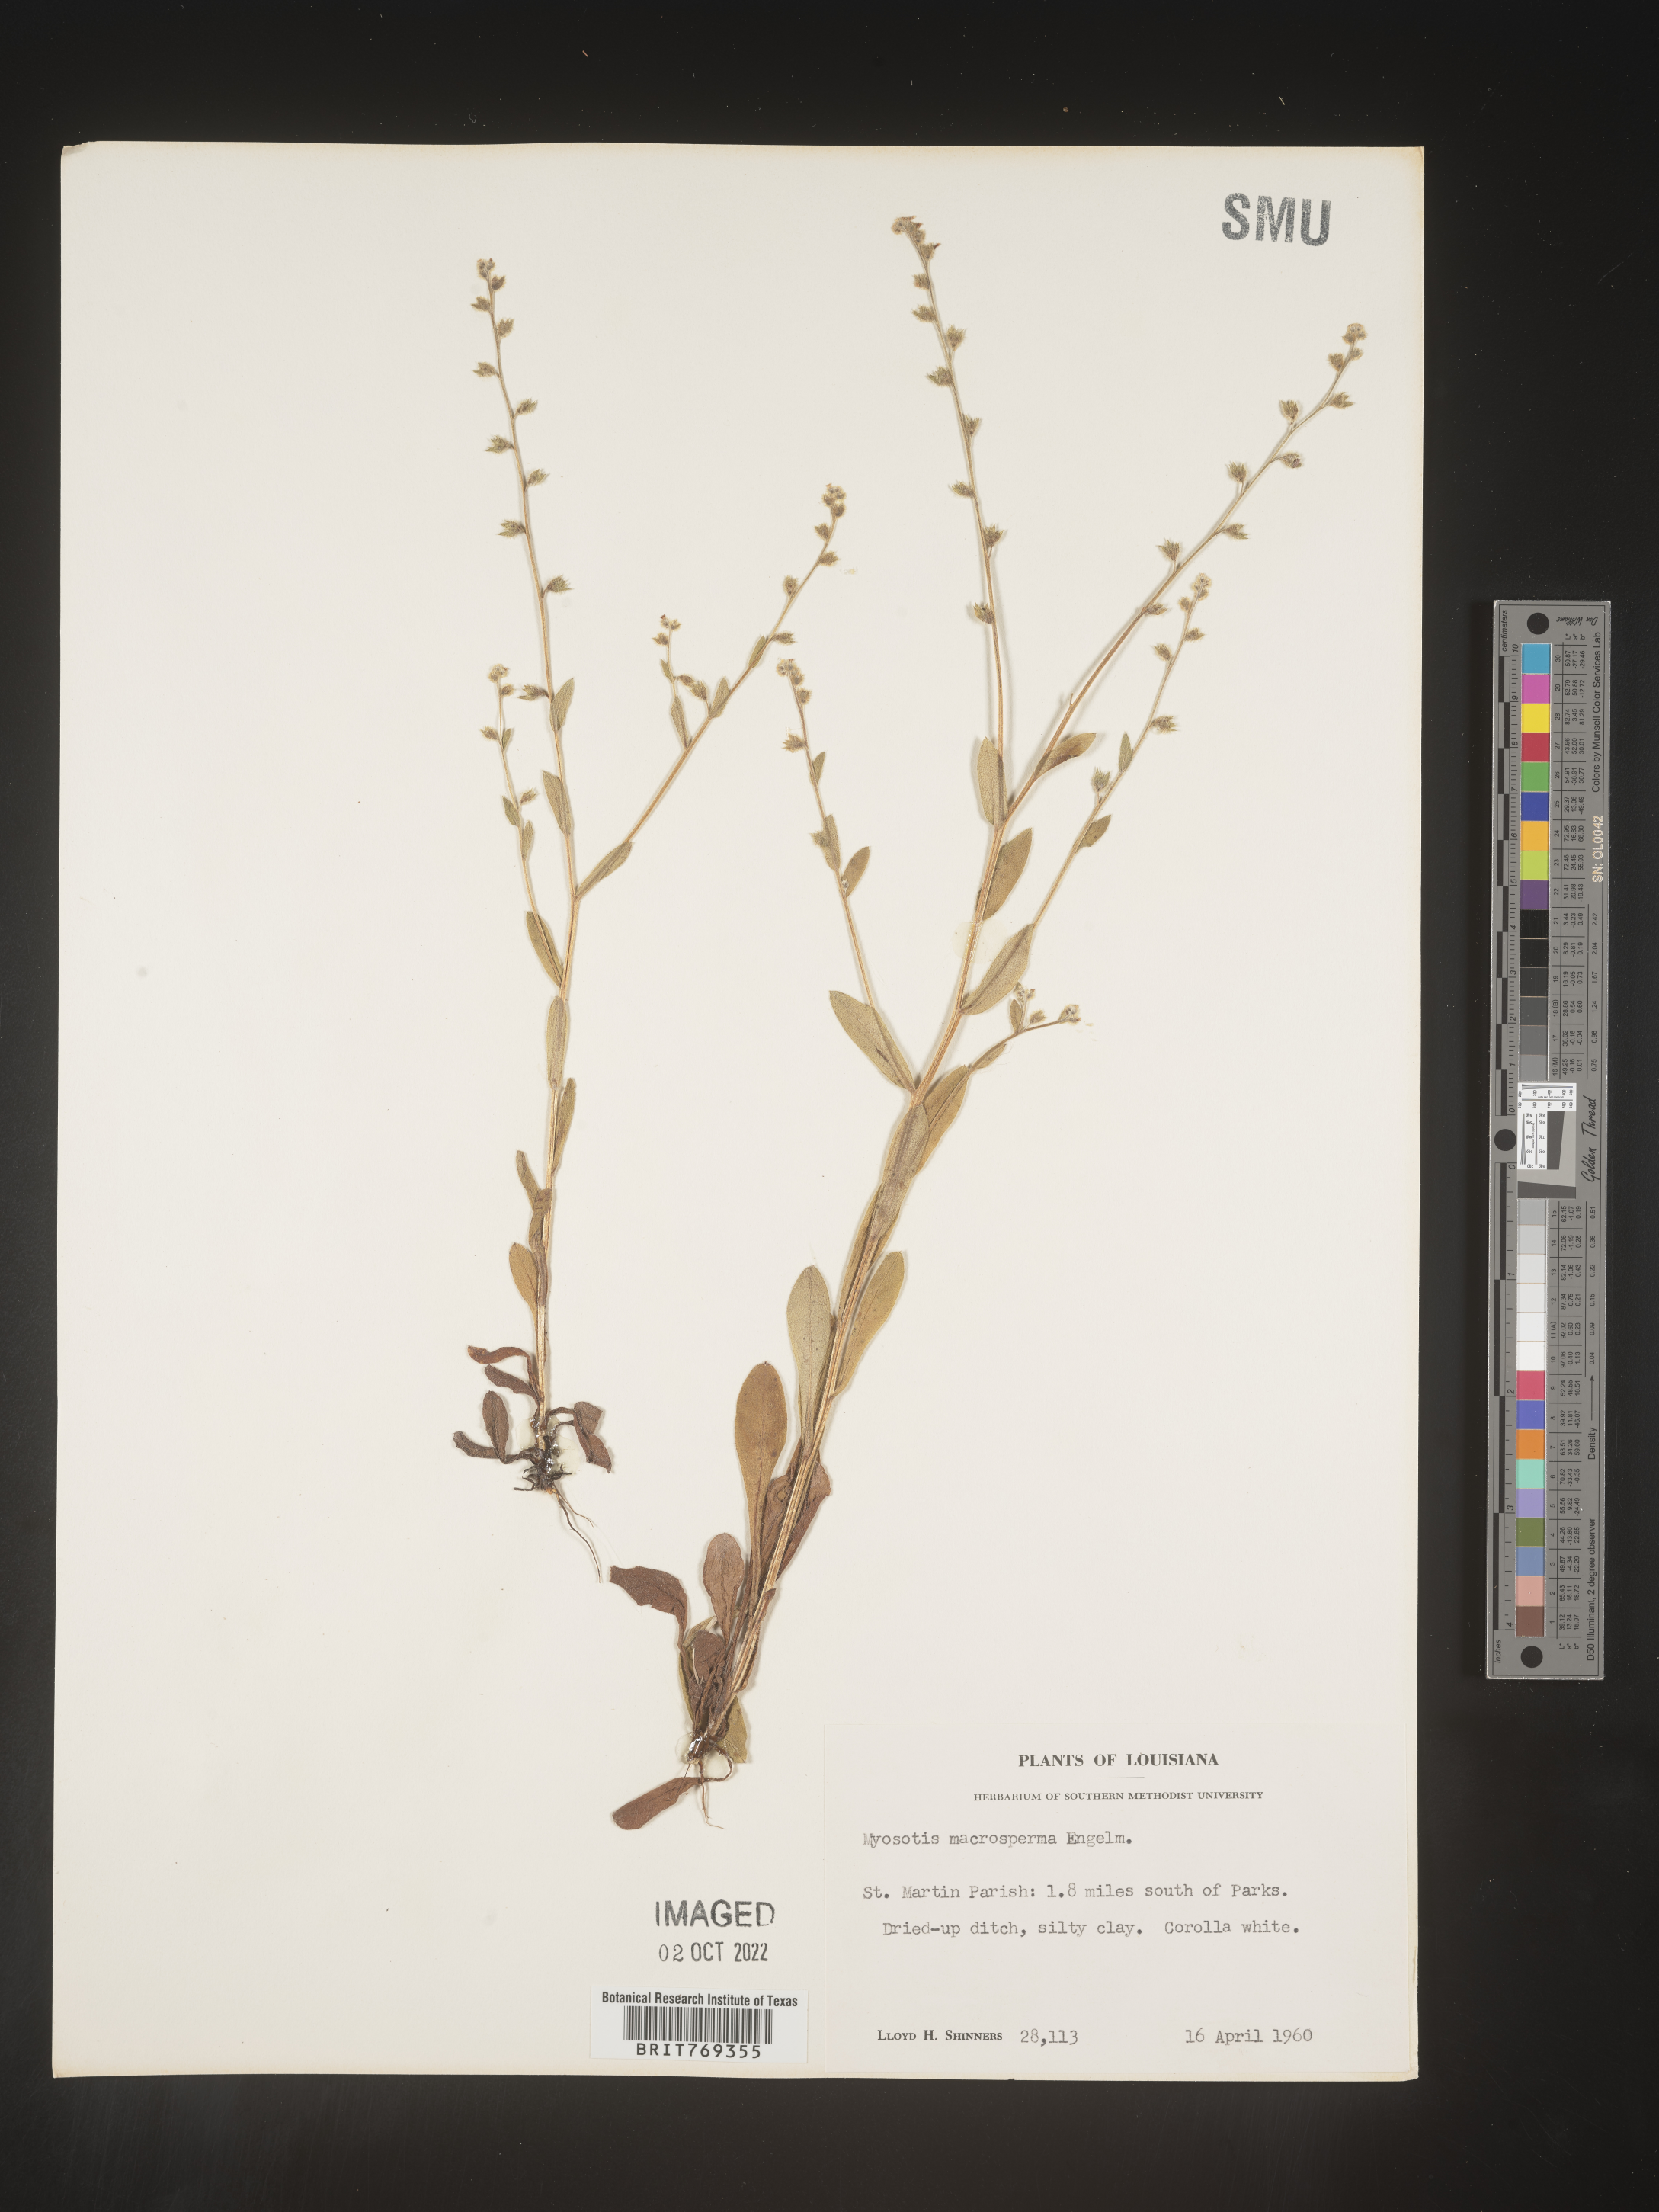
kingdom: Plantae
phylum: Tracheophyta
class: Magnoliopsida
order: Boraginales
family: Boraginaceae
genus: Myosotis
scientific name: Myosotis macrosperma
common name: Large-seed forget-me-not
